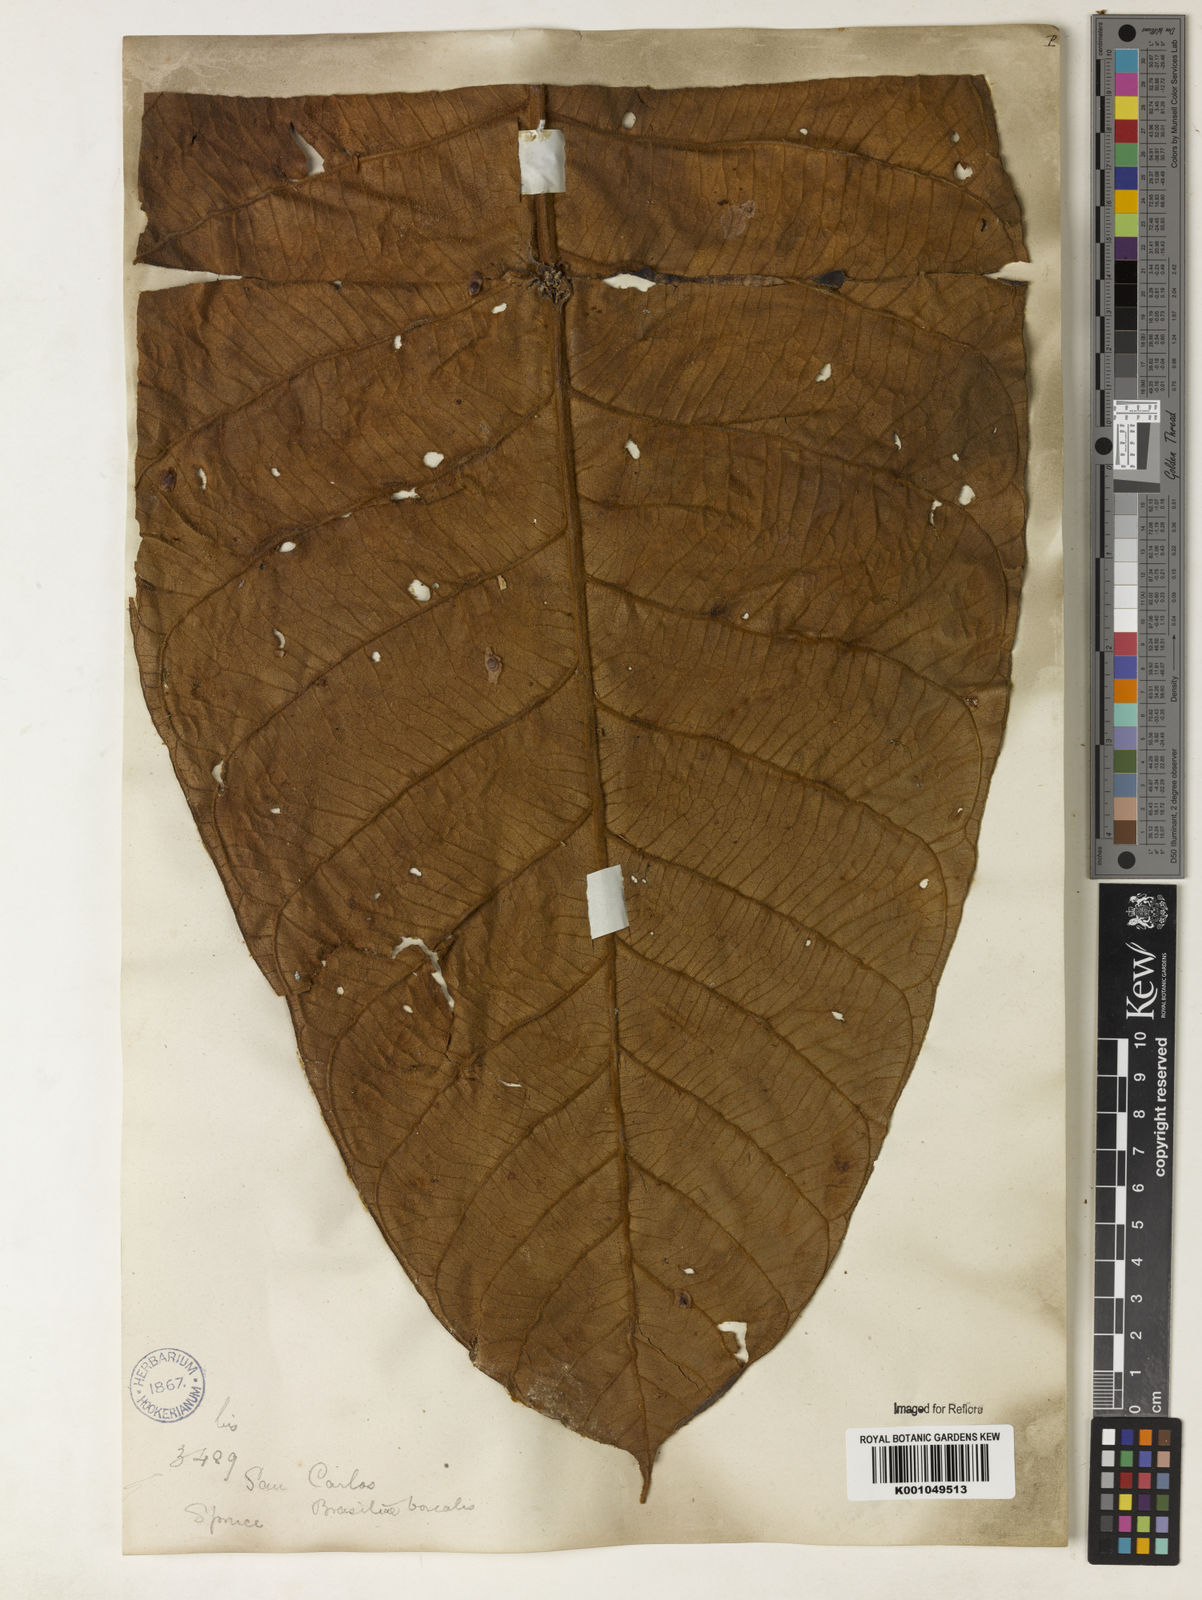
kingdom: Plantae
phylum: Tracheophyta
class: Magnoliopsida
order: Gentianales
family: Rubiaceae
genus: Remijia
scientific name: Remijia lacunosa
